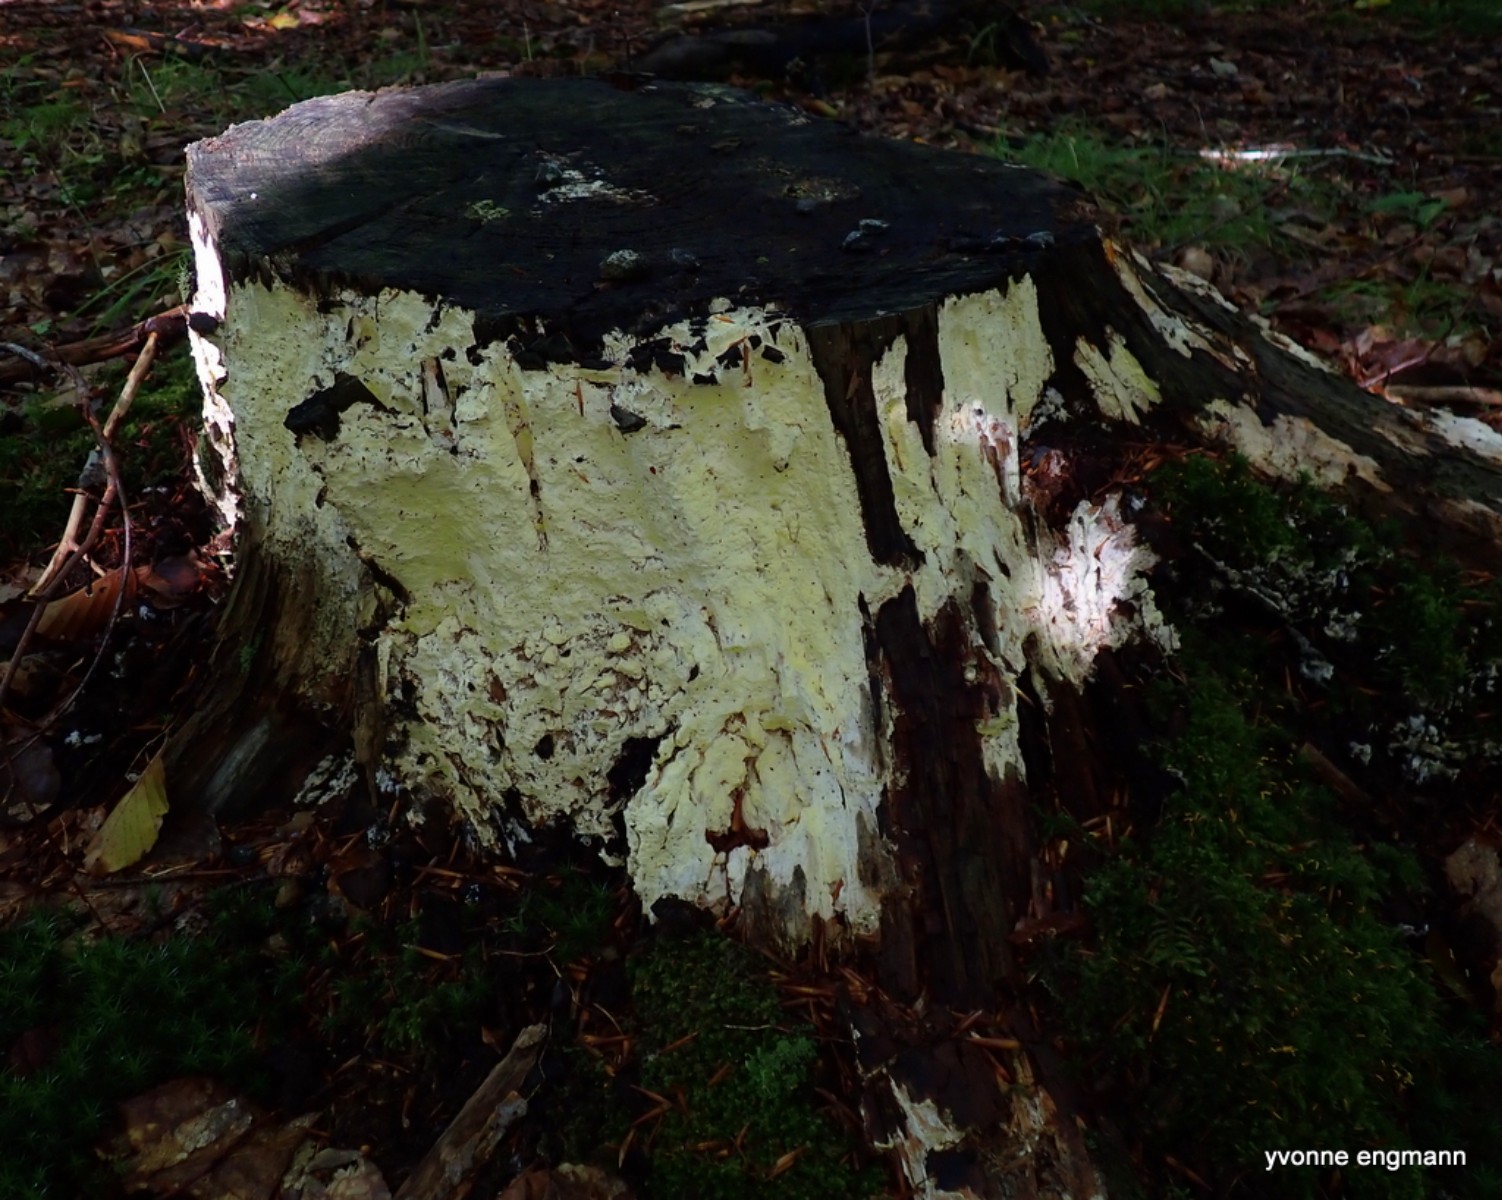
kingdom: Fungi
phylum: Basidiomycota
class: Agaricomycetes
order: Polyporales
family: Fomitopsidaceae
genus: Daedalea
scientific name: Daedalea xantha
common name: gul sejporesvamp
